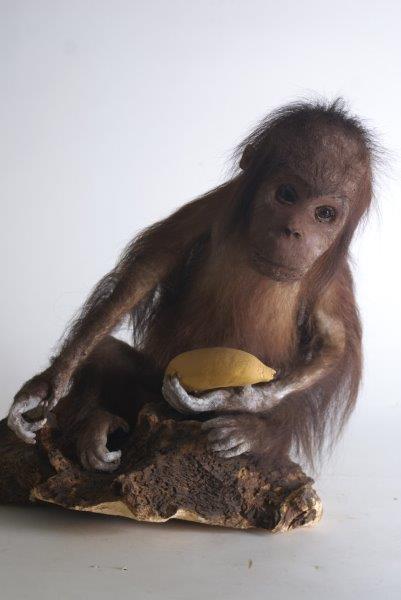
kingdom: Animalia
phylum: Chordata
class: Mammalia
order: Primates
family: Hominidae
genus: Pongo
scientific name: Pongo pygmaeus
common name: Bornean Orangutan
